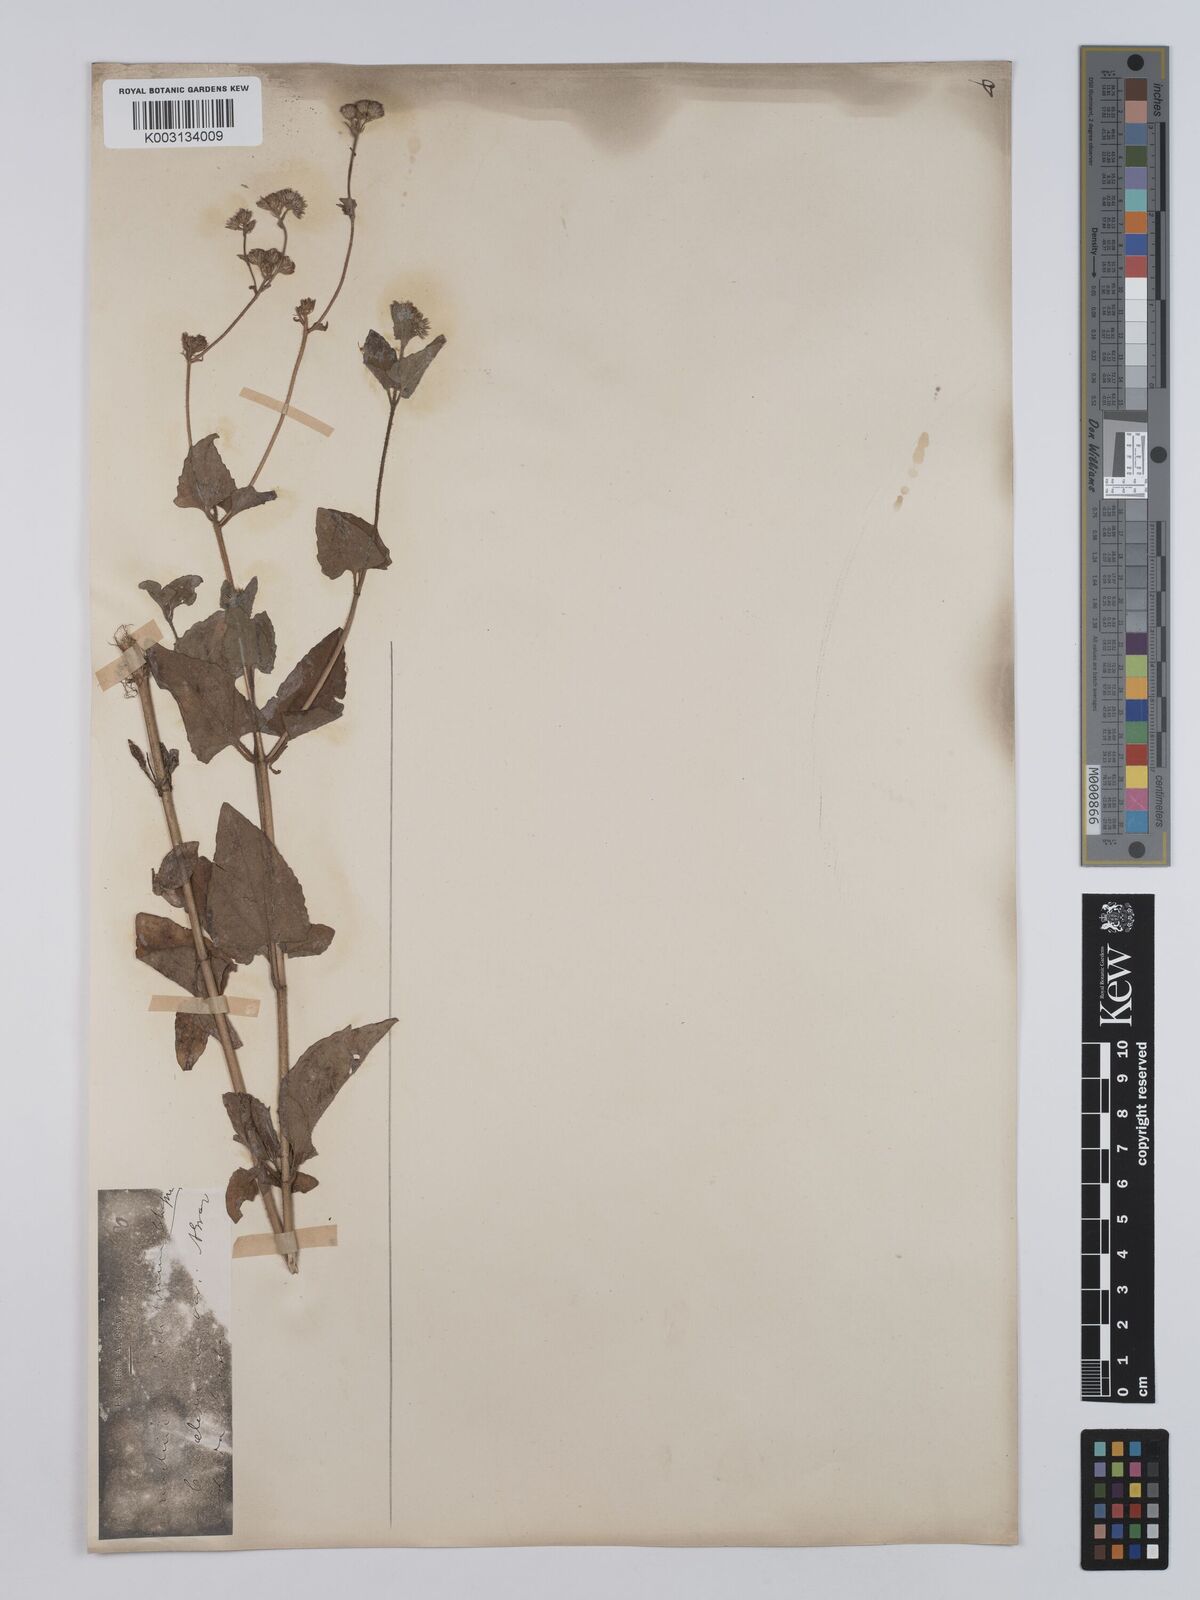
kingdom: Plantae
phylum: Tracheophyta
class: Magnoliopsida
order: Asterales
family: Asteraceae
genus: Conoclinium
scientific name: Conoclinium coelestinum
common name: Blue mistflower
